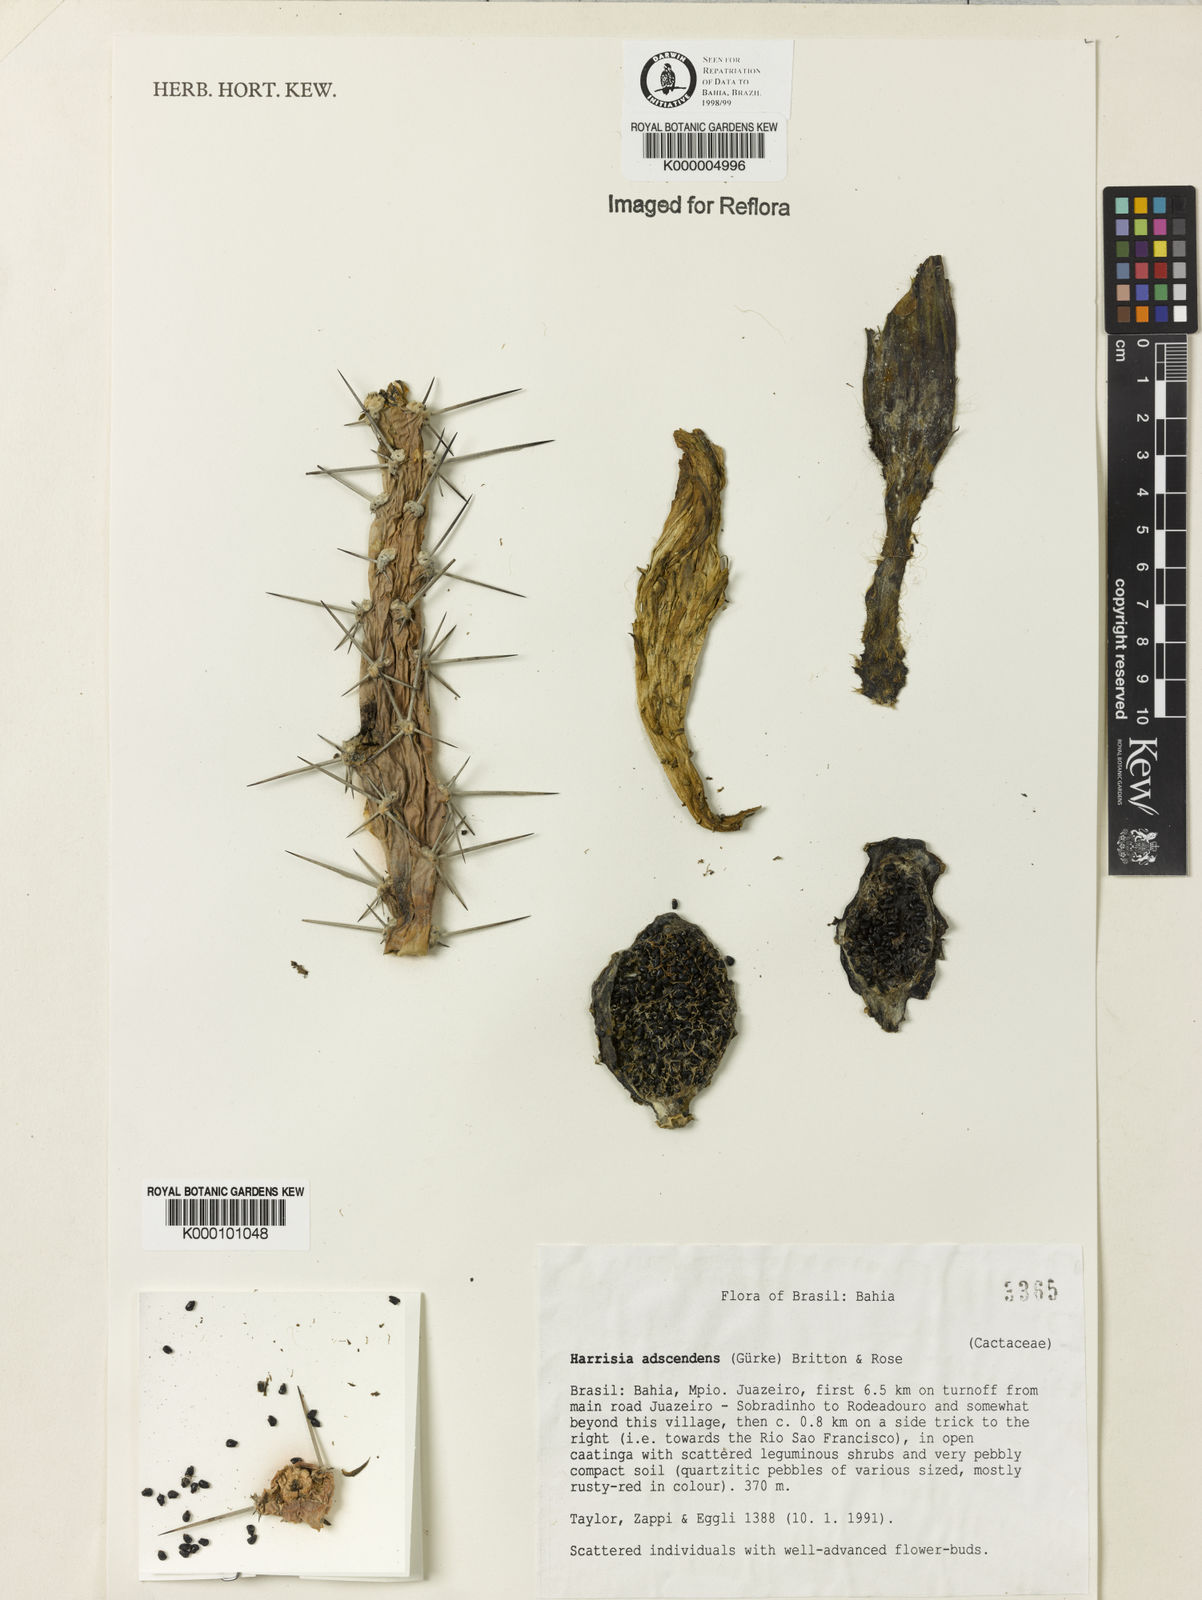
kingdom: Plantae
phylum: Tracheophyta
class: Magnoliopsida
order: Caryophyllales
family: Cactaceae
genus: Harrisia
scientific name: Harrisia adscendens
